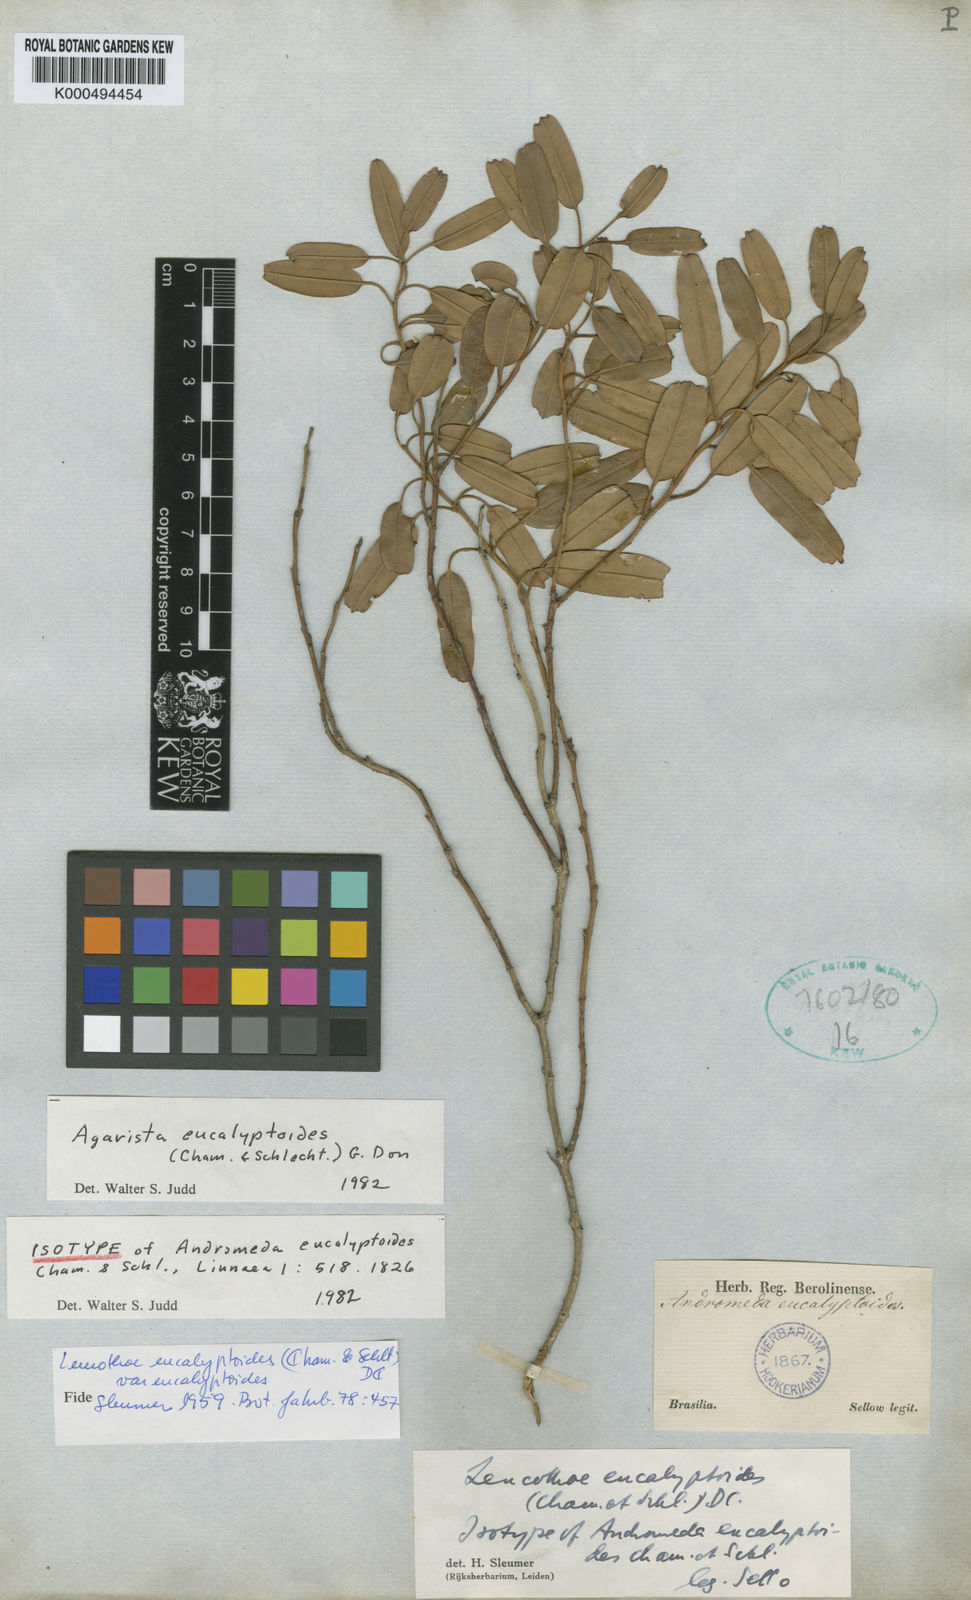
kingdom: Plantae
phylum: Tracheophyta
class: Magnoliopsida
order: Ericales
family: Ericaceae
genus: Agarista
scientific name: Agarista eucalyptoides
